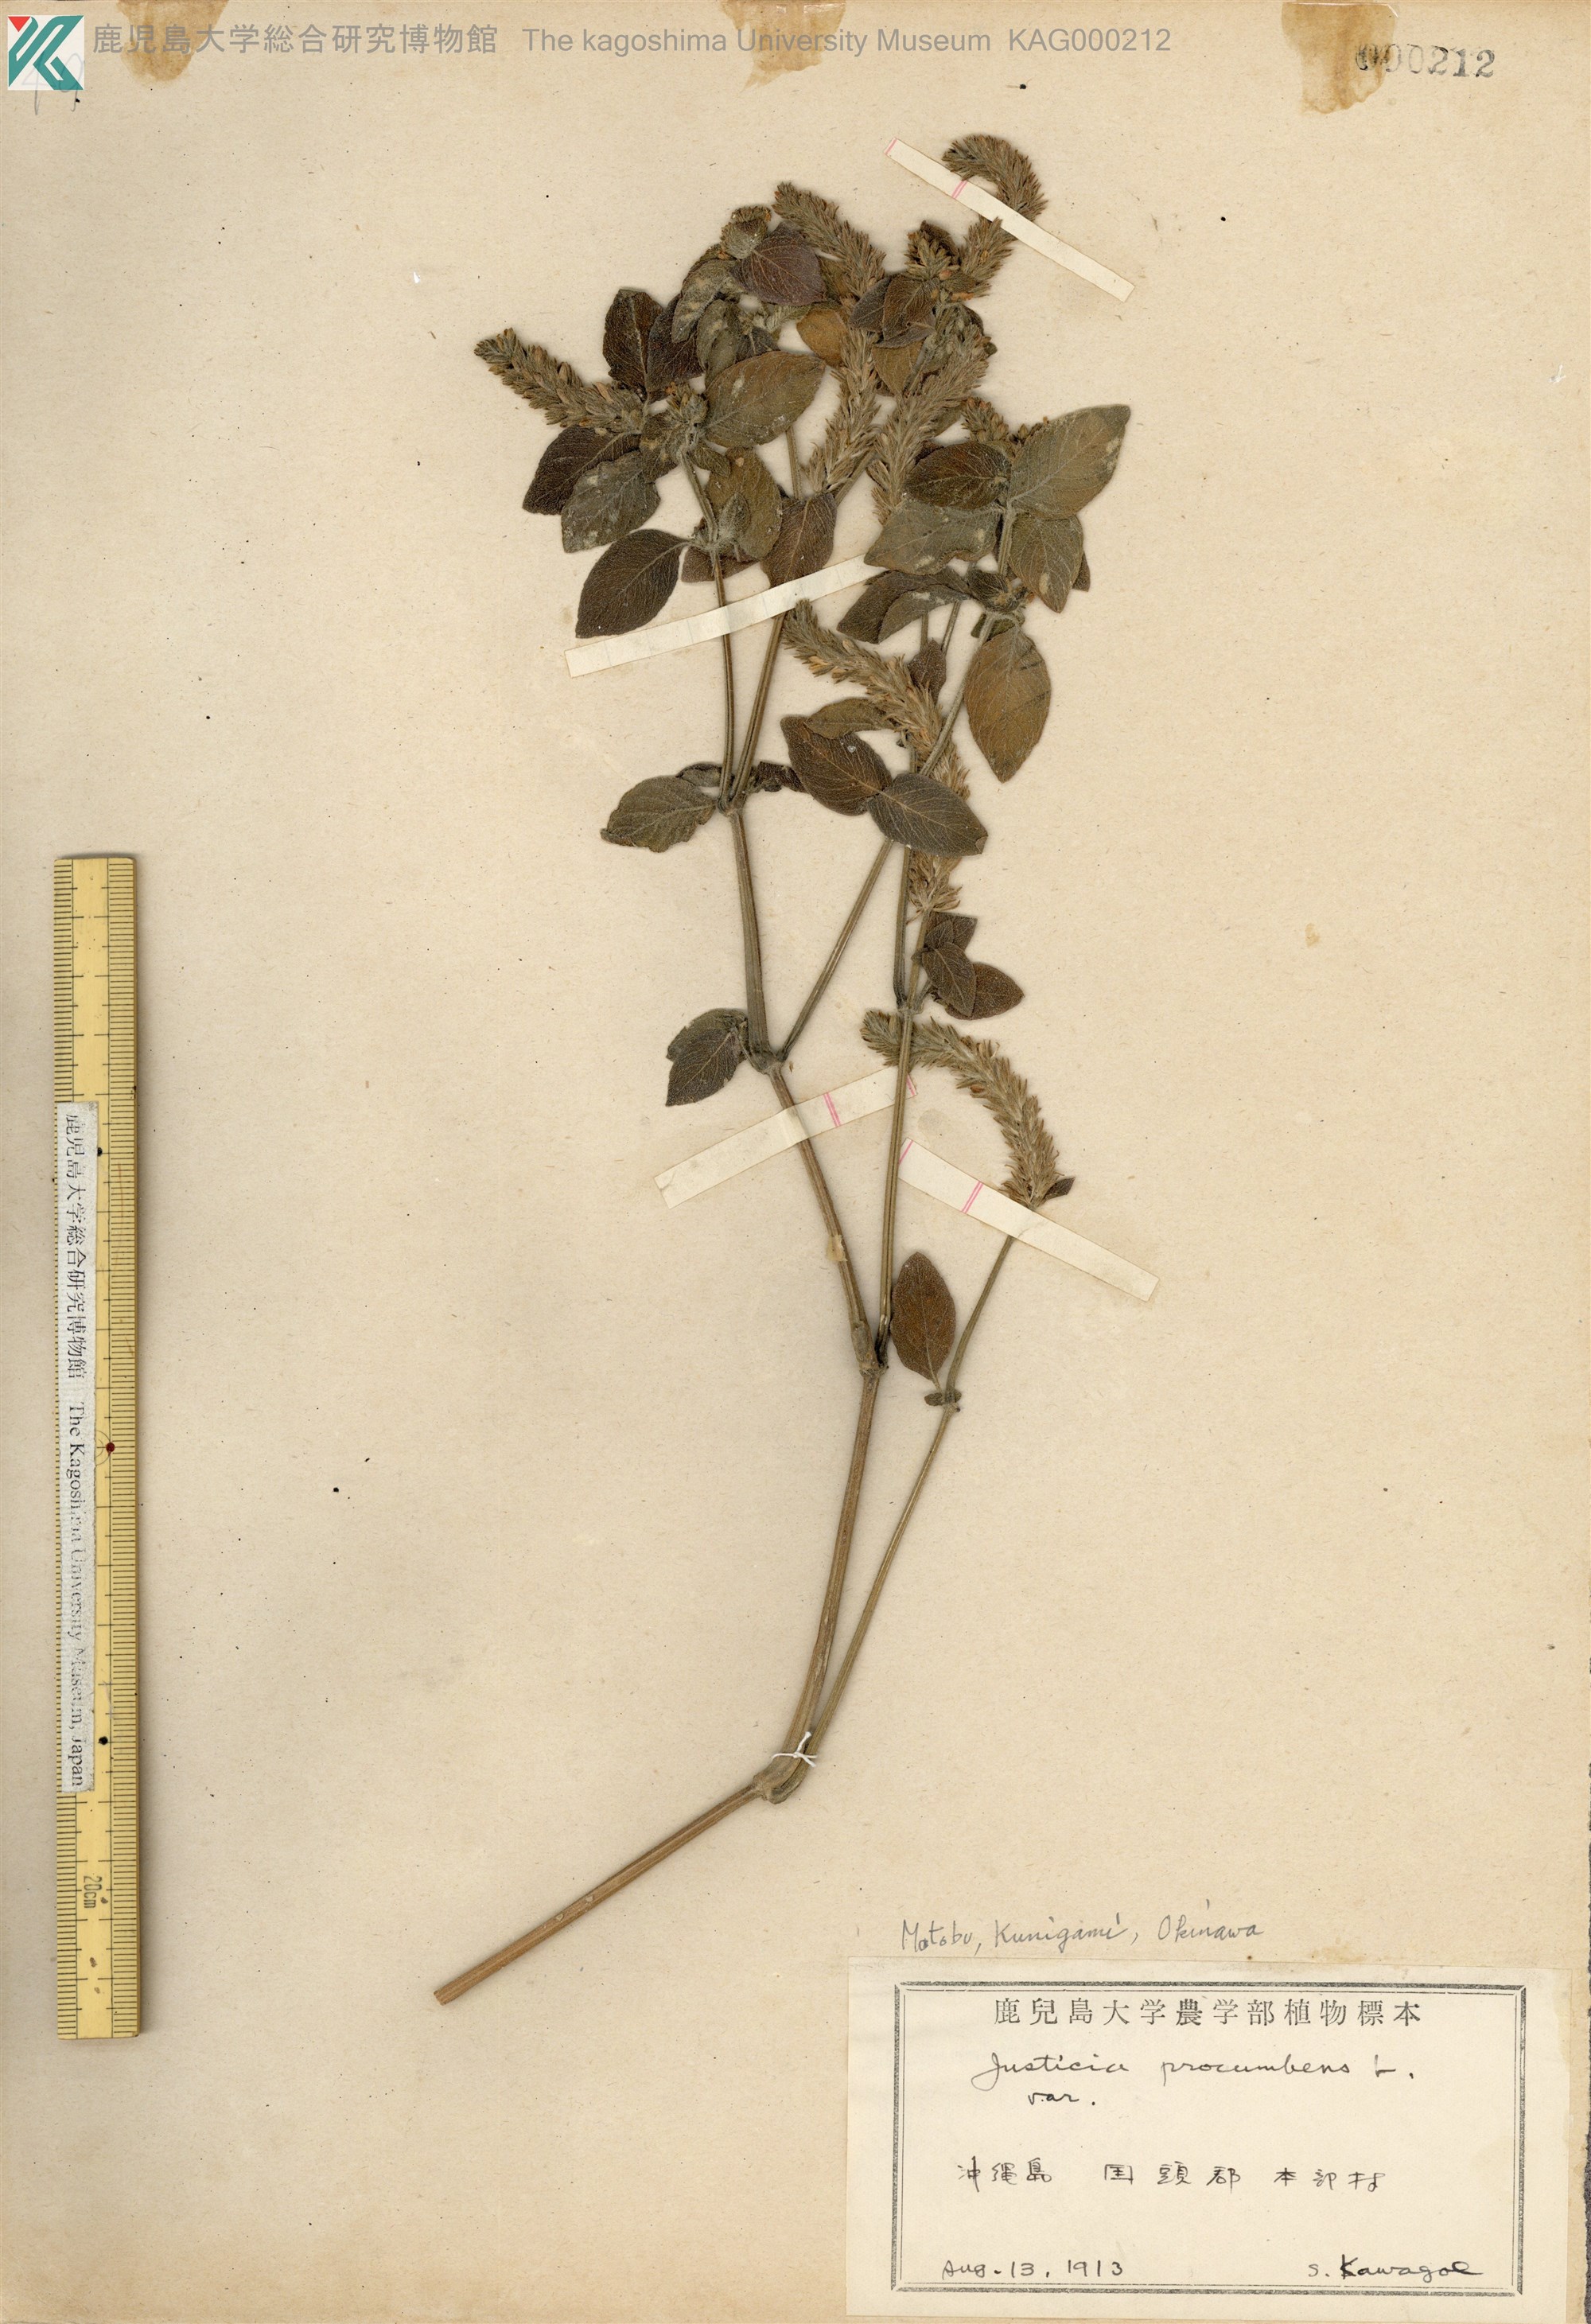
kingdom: Plantae
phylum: Tracheophyta
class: Magnoliopsida
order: Lamiales
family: Acanthaceae
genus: Rostellularia
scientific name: Rostellularia procumbens
